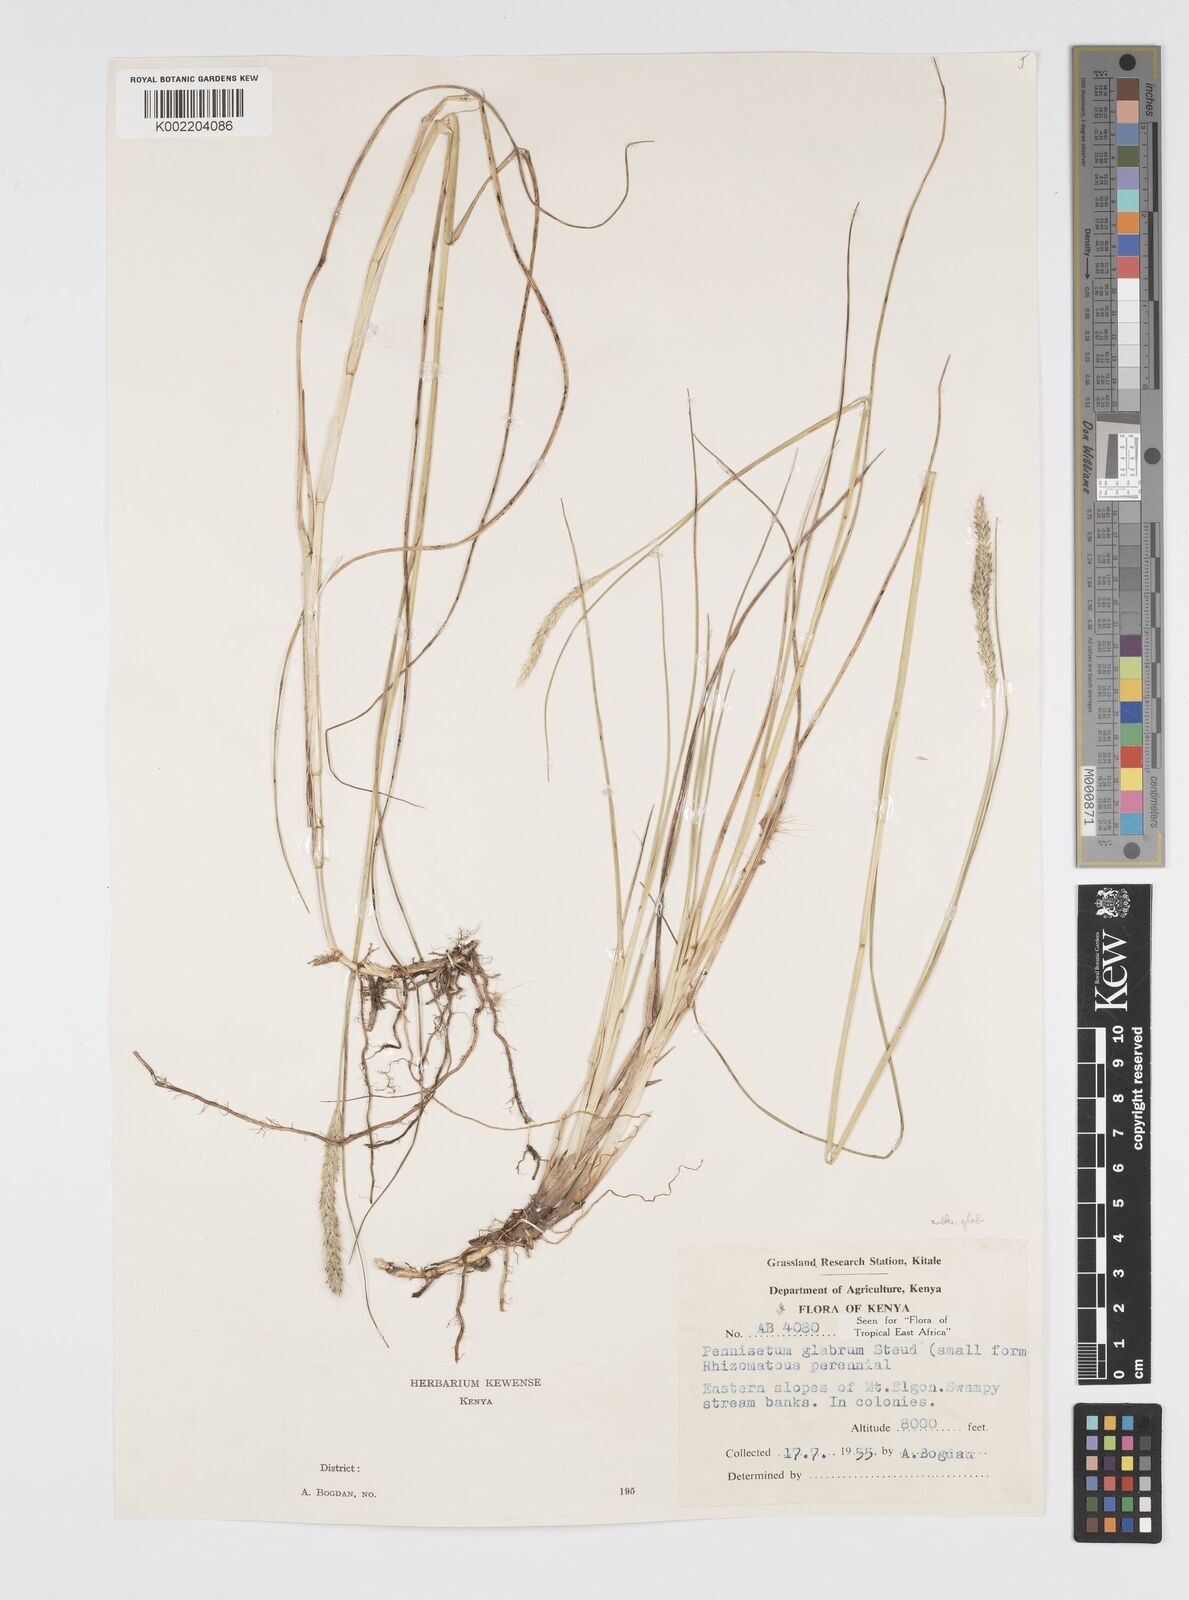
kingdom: Plantae
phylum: Tracheophyta
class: Liliopsida
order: Poales
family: Poaceae
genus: Cenchrus
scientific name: Cenchrus geniculatus
